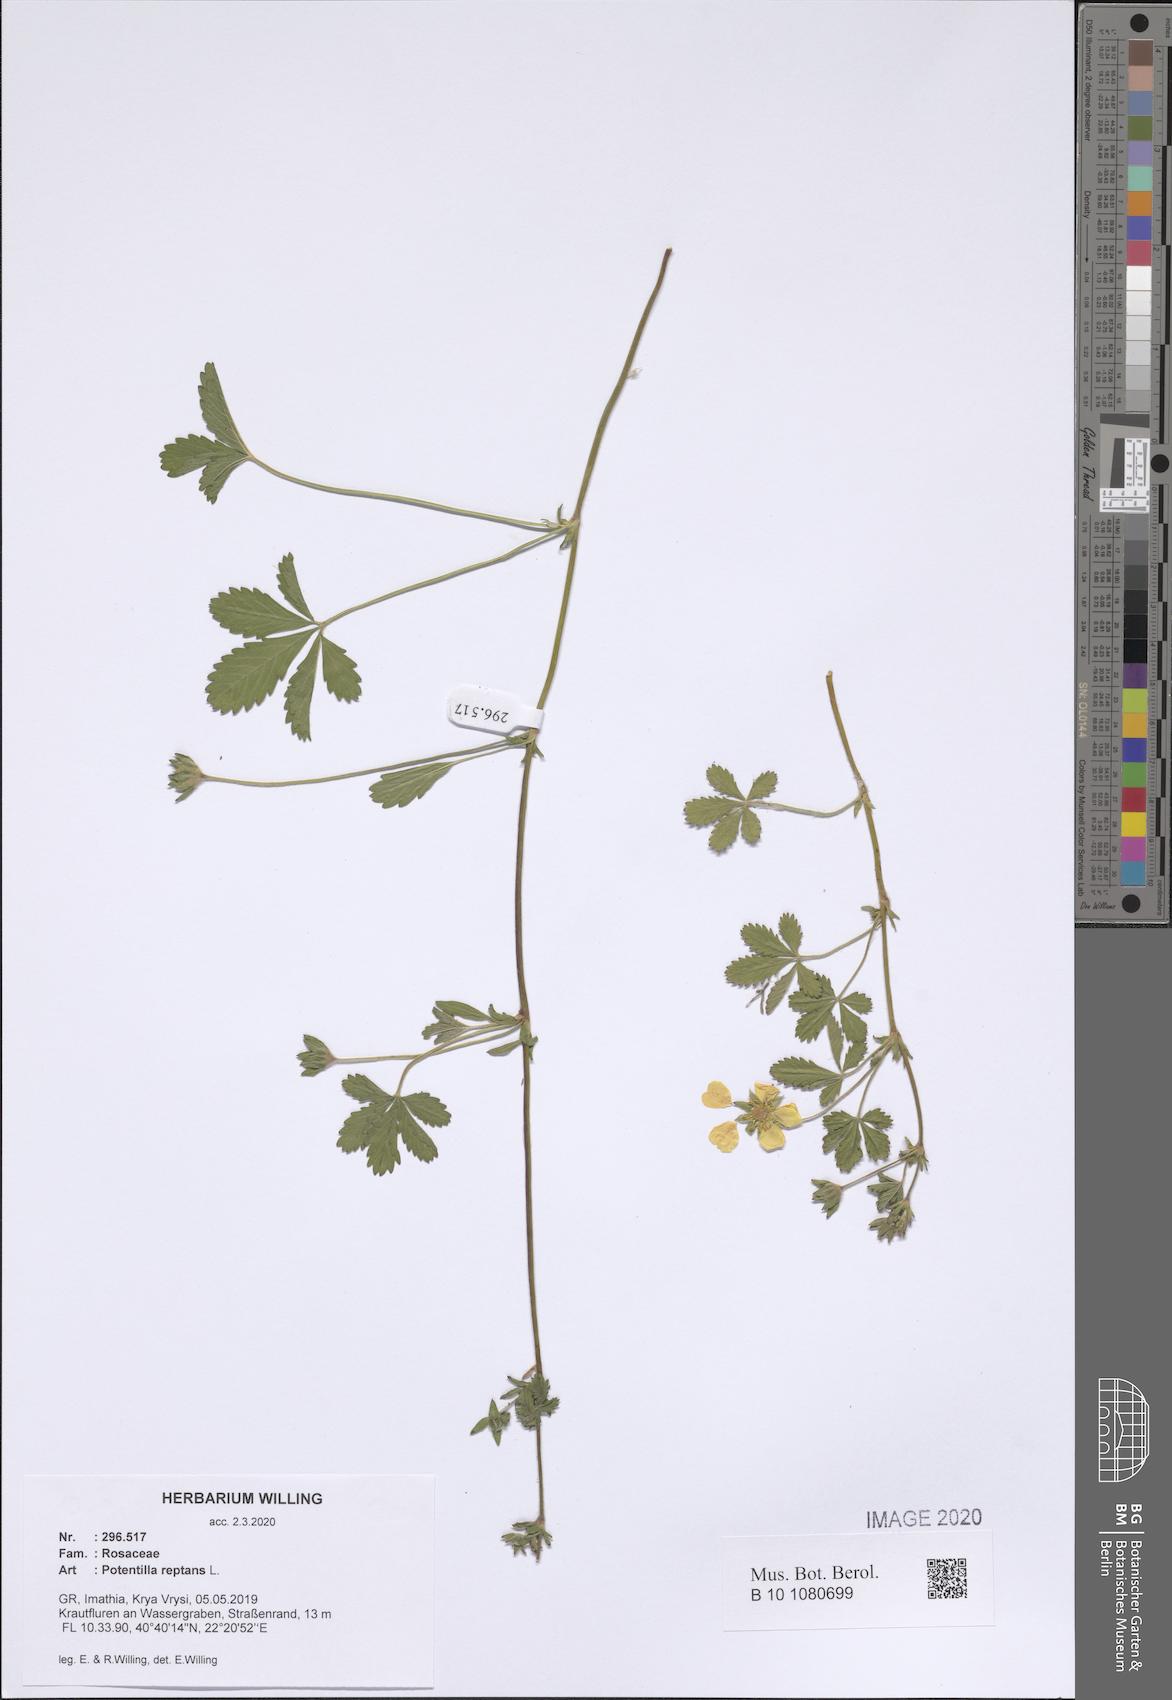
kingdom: Plantae
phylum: Tracheophyta
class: Magnoliopsida
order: Rosales
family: Rosaceae
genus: Potentilla
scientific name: Potentilla reptans
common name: Creeping cinquefoil
